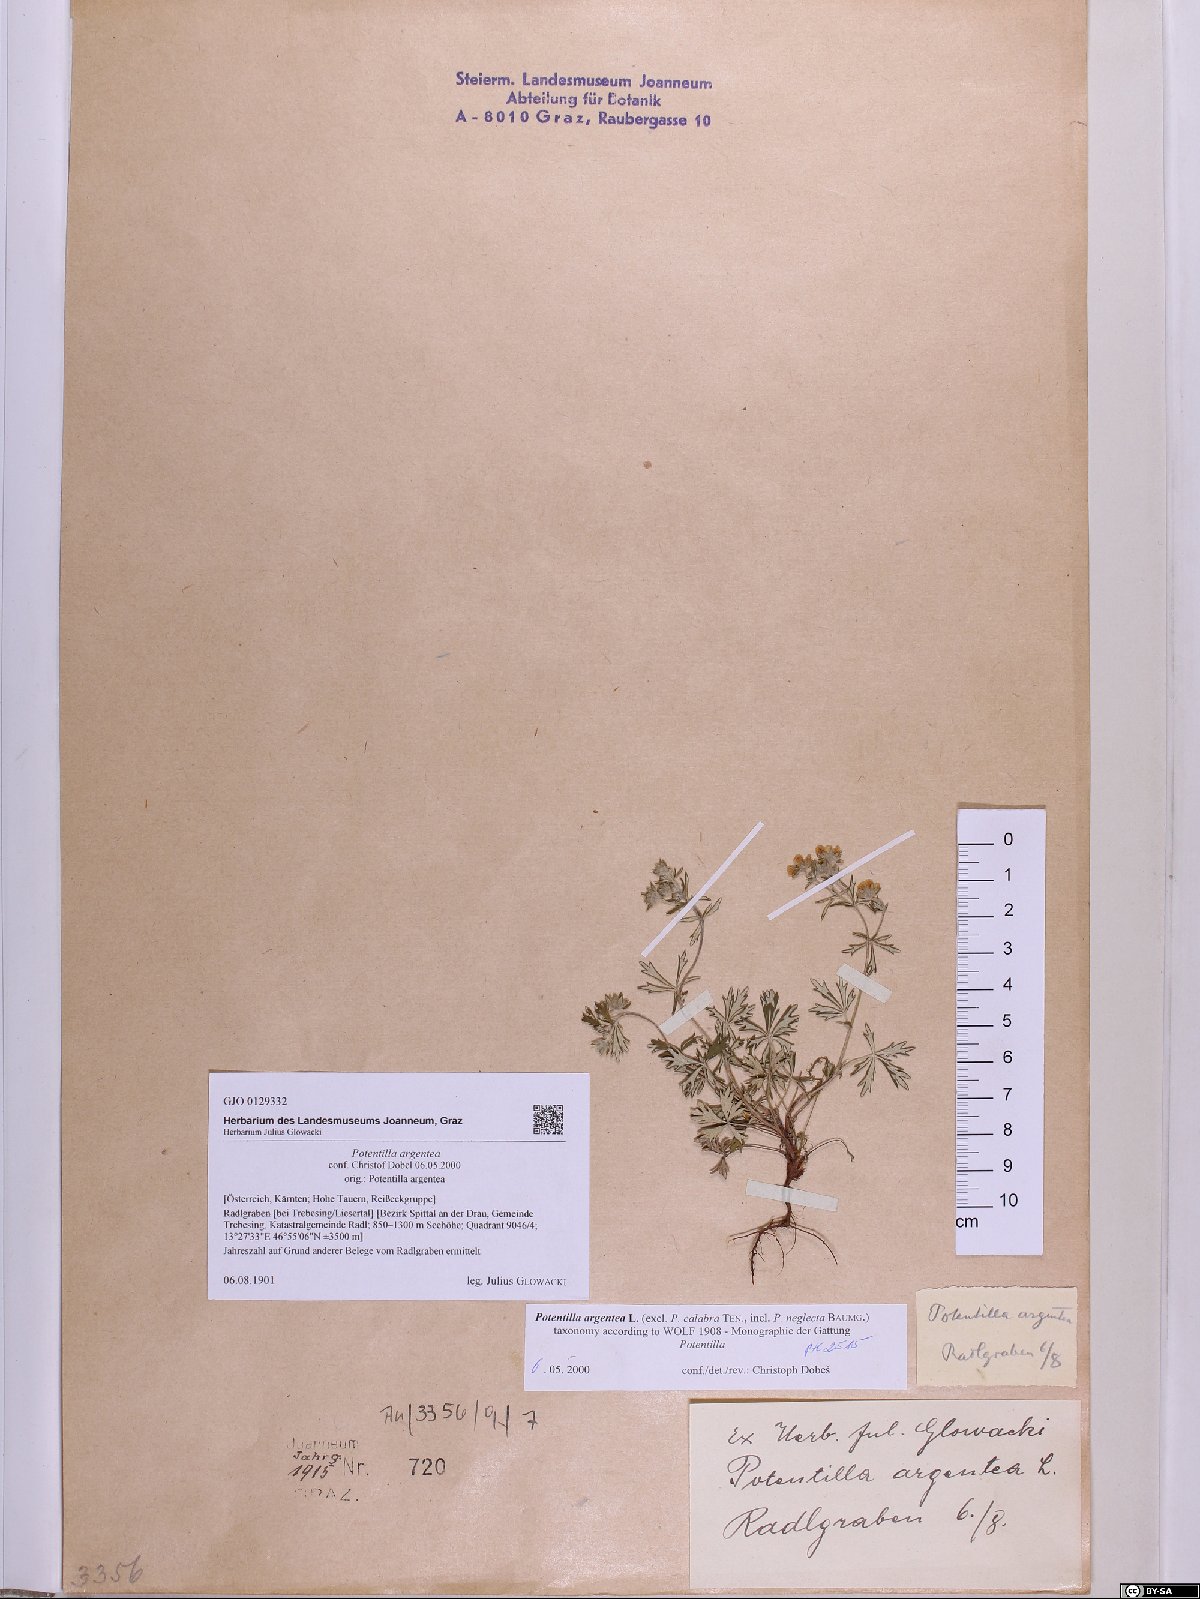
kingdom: Plantae
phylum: Tracheophyta
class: Magnoliopsida
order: Rosales
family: Rosaceae
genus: Potentilla
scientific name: Potentilla argentea
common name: Hoary cinquefoil
